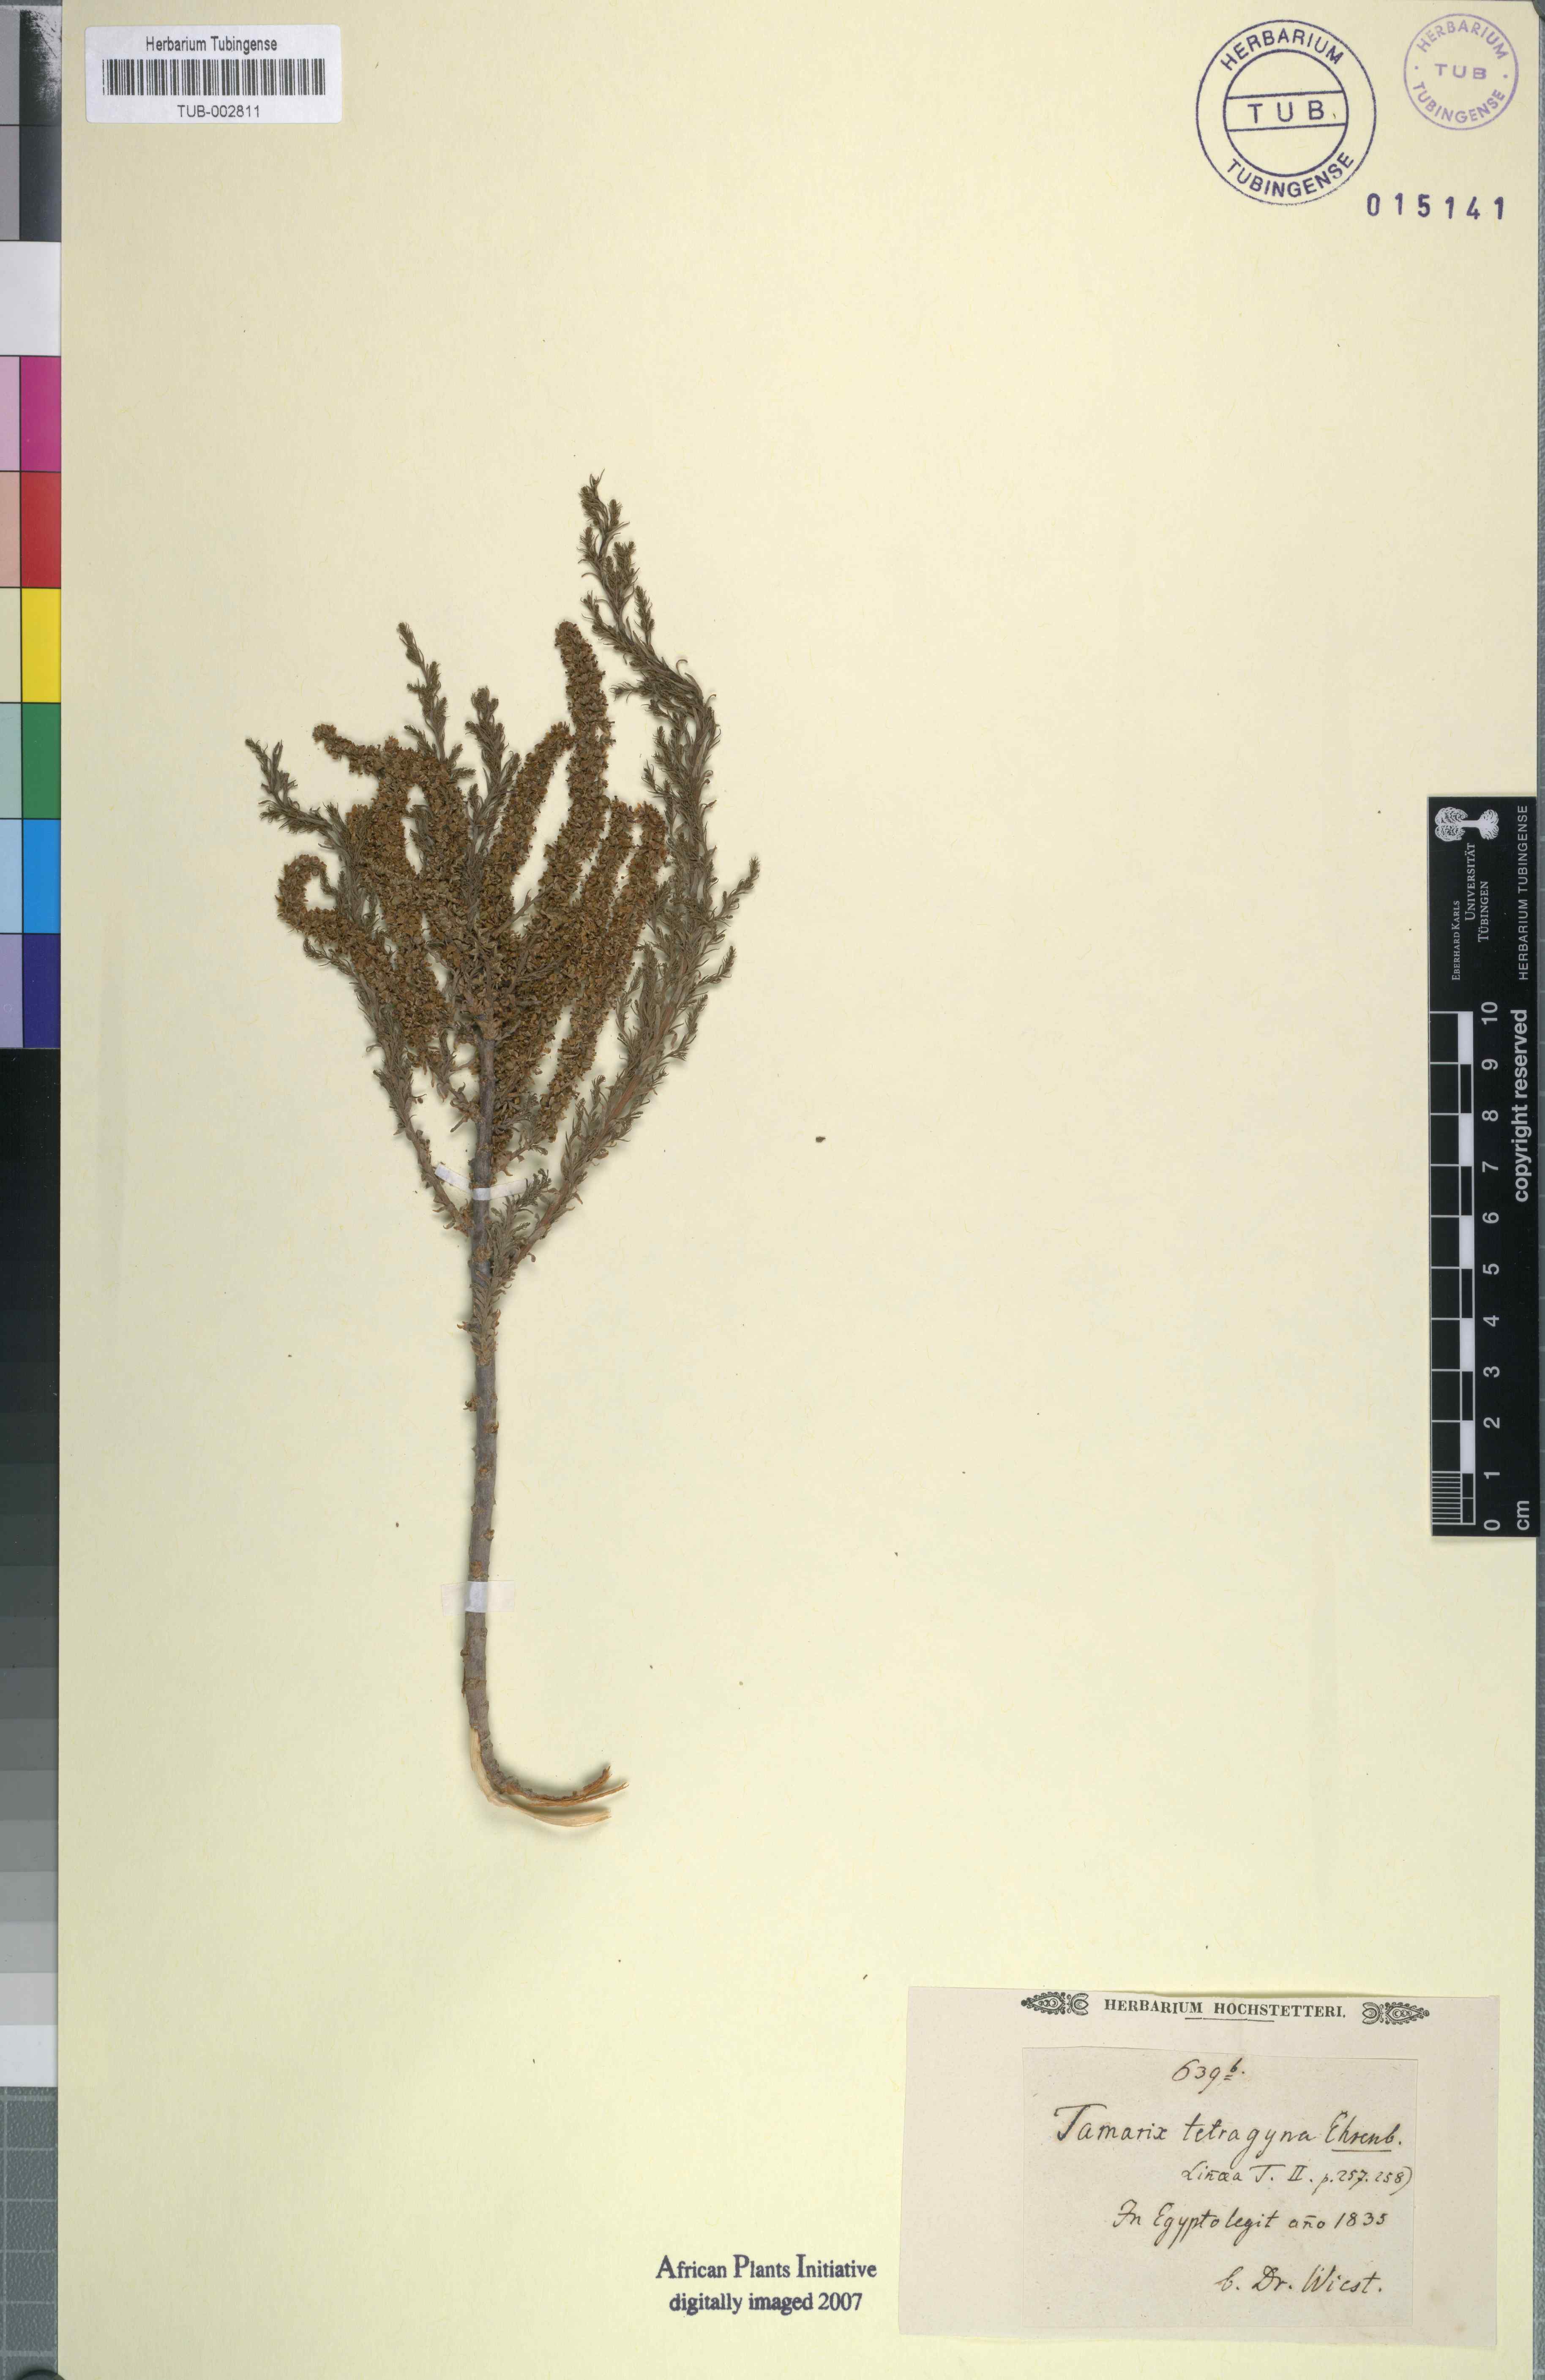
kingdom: Plantae
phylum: Tracheophyta
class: Magnoliopsida
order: Caryophyllales
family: Tamaricaceae
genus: Tamarix
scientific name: Tamarix tetragyna
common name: Four-stamen tamarisk
